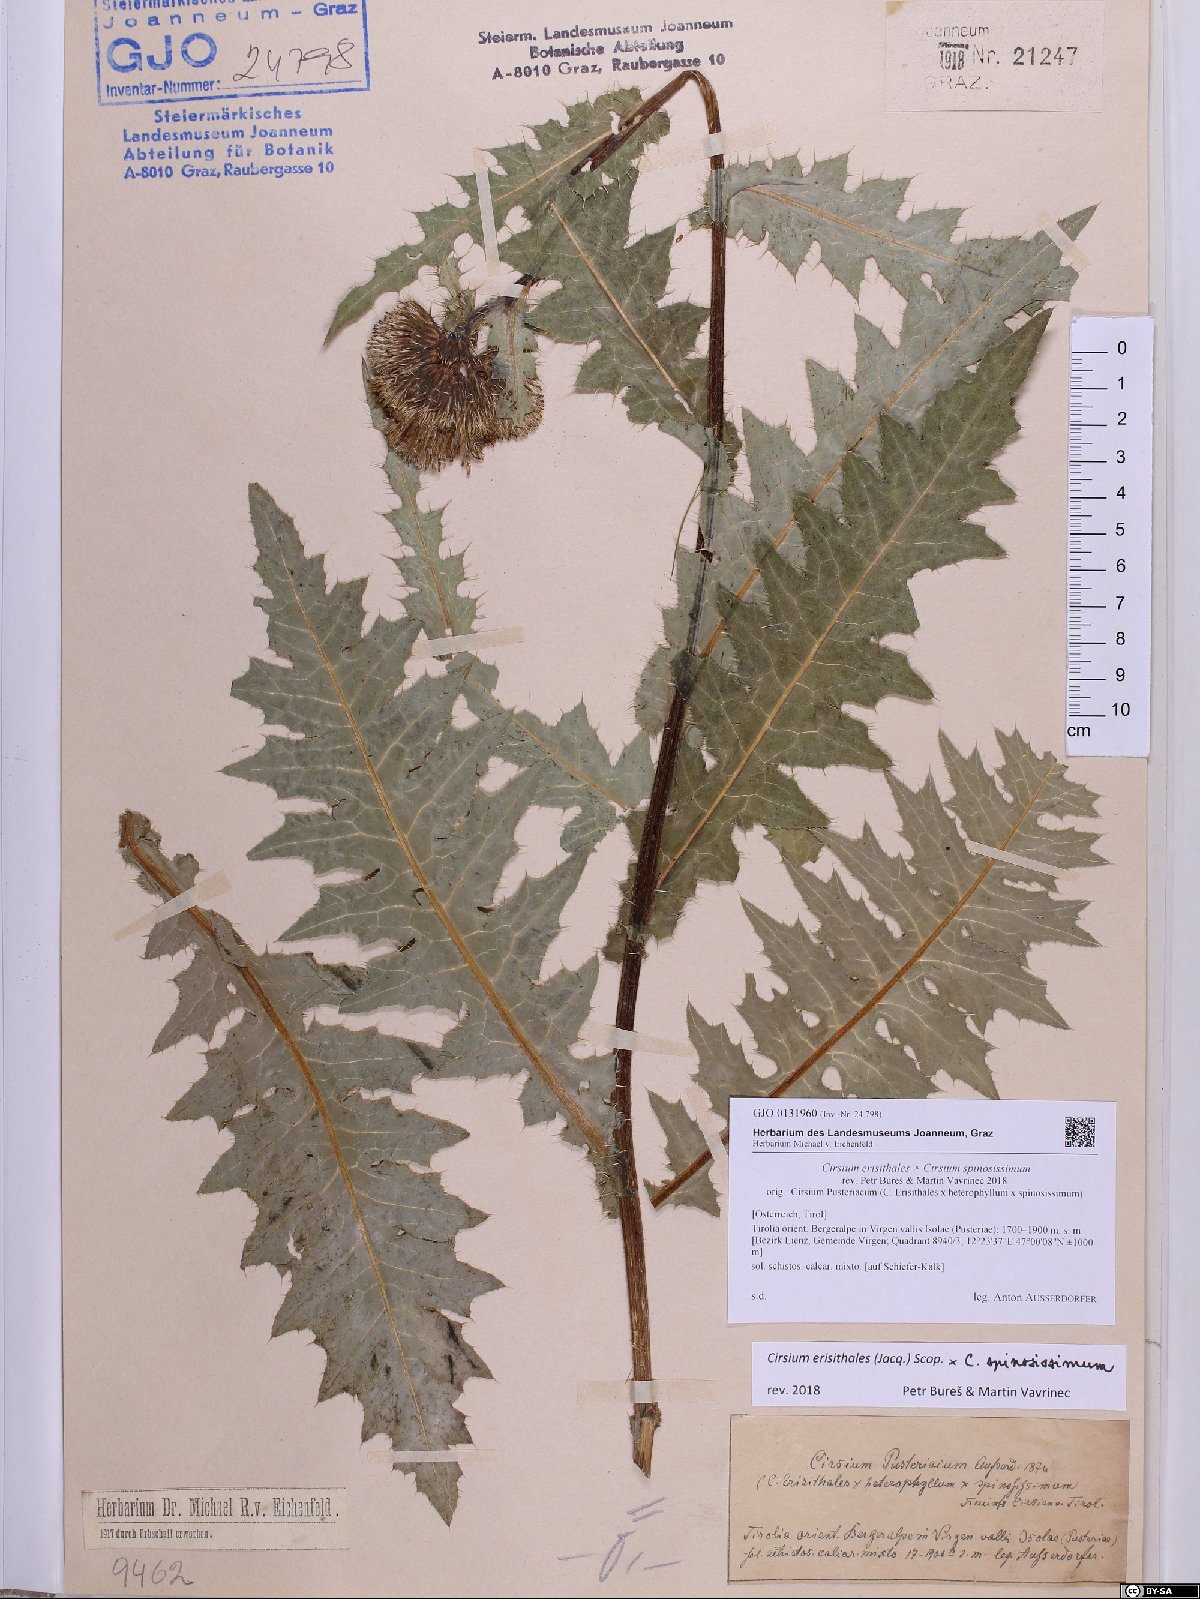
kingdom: Plantae
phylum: Tracheophyta
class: Magnoliopsida
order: Asterales
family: Asteraceae
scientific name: Asteraceae
